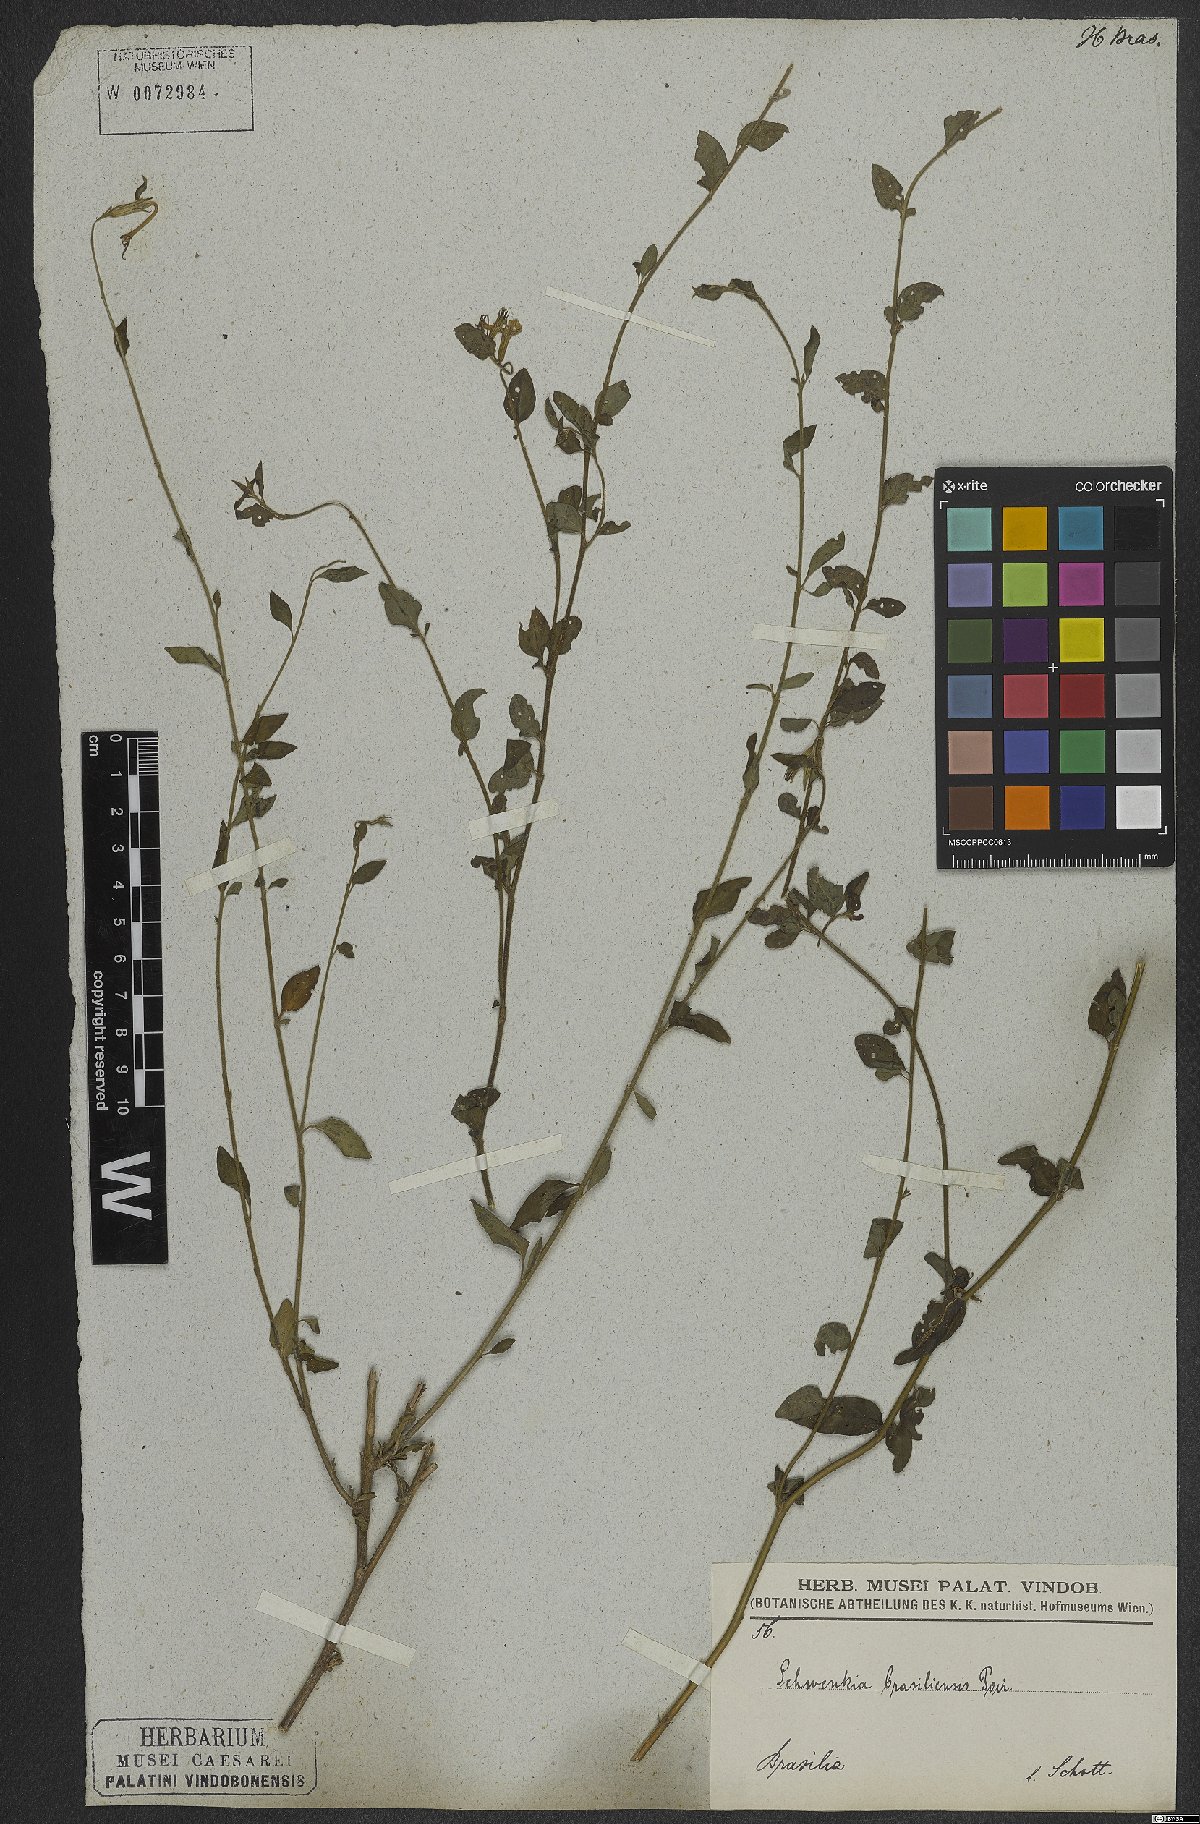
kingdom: Plantae
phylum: Tracheophyta
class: Magnoliopsida
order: Solanales
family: Solanaceae
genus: Schwenckia
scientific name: Schwenckia lateriflora
